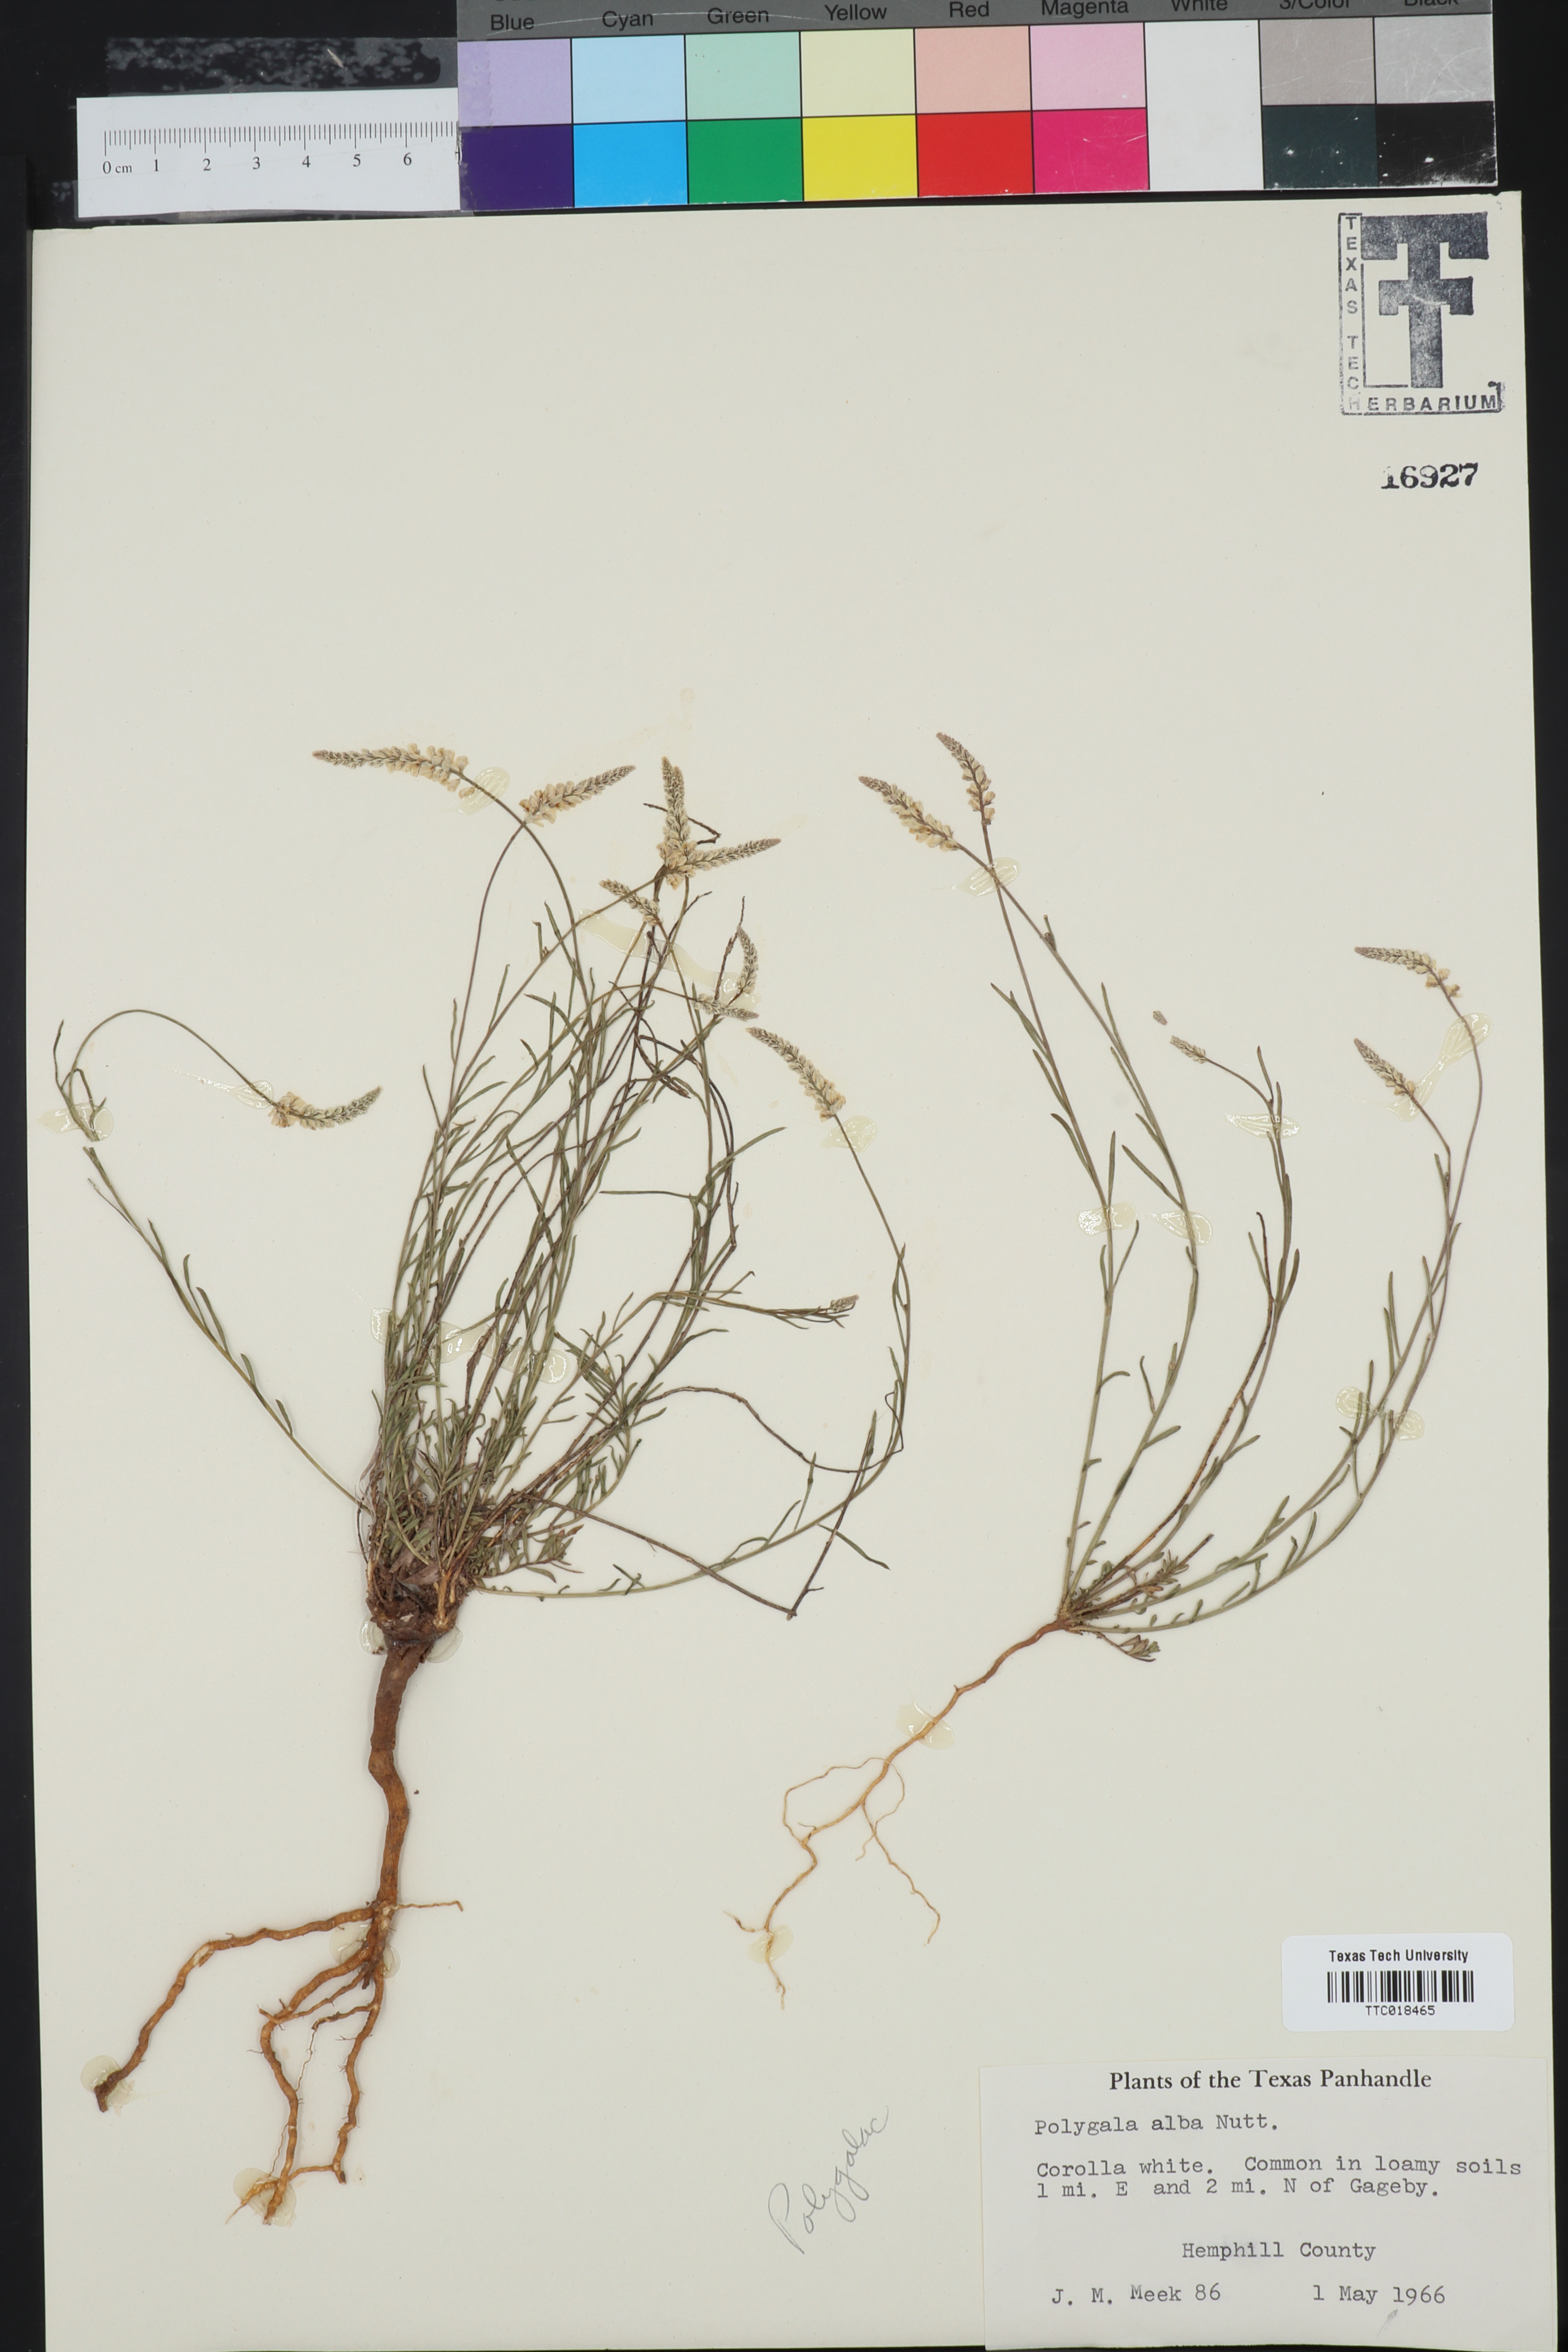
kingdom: Plantae
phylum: Tracheophyta
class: Magnoliopsida
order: Fabales
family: Polygalaceae
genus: Polygala
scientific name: Polygala alba
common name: White milkwort
